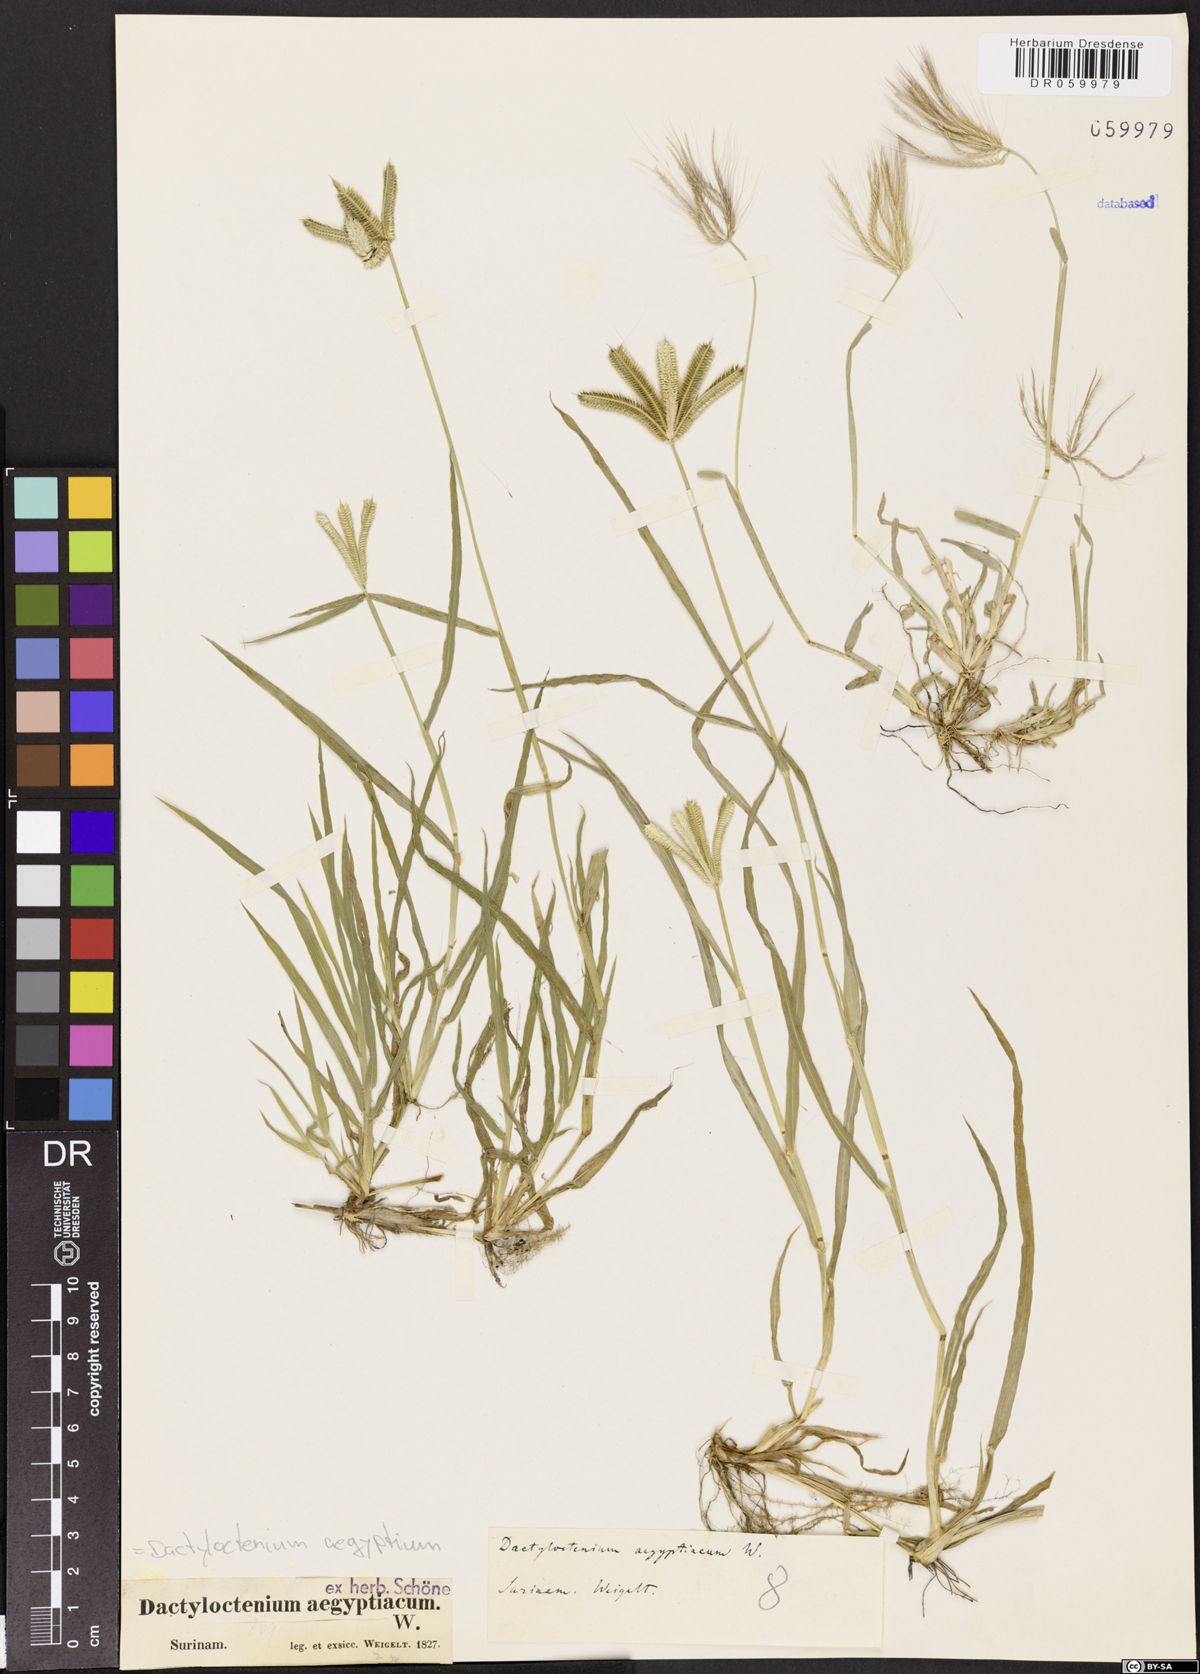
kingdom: Plantae
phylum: Tracheophyta
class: Liliopsida
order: Poales
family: Poaceae
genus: Dactyloctenium
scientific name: Dactyloctenium aegyptium
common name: Egyptian grass
